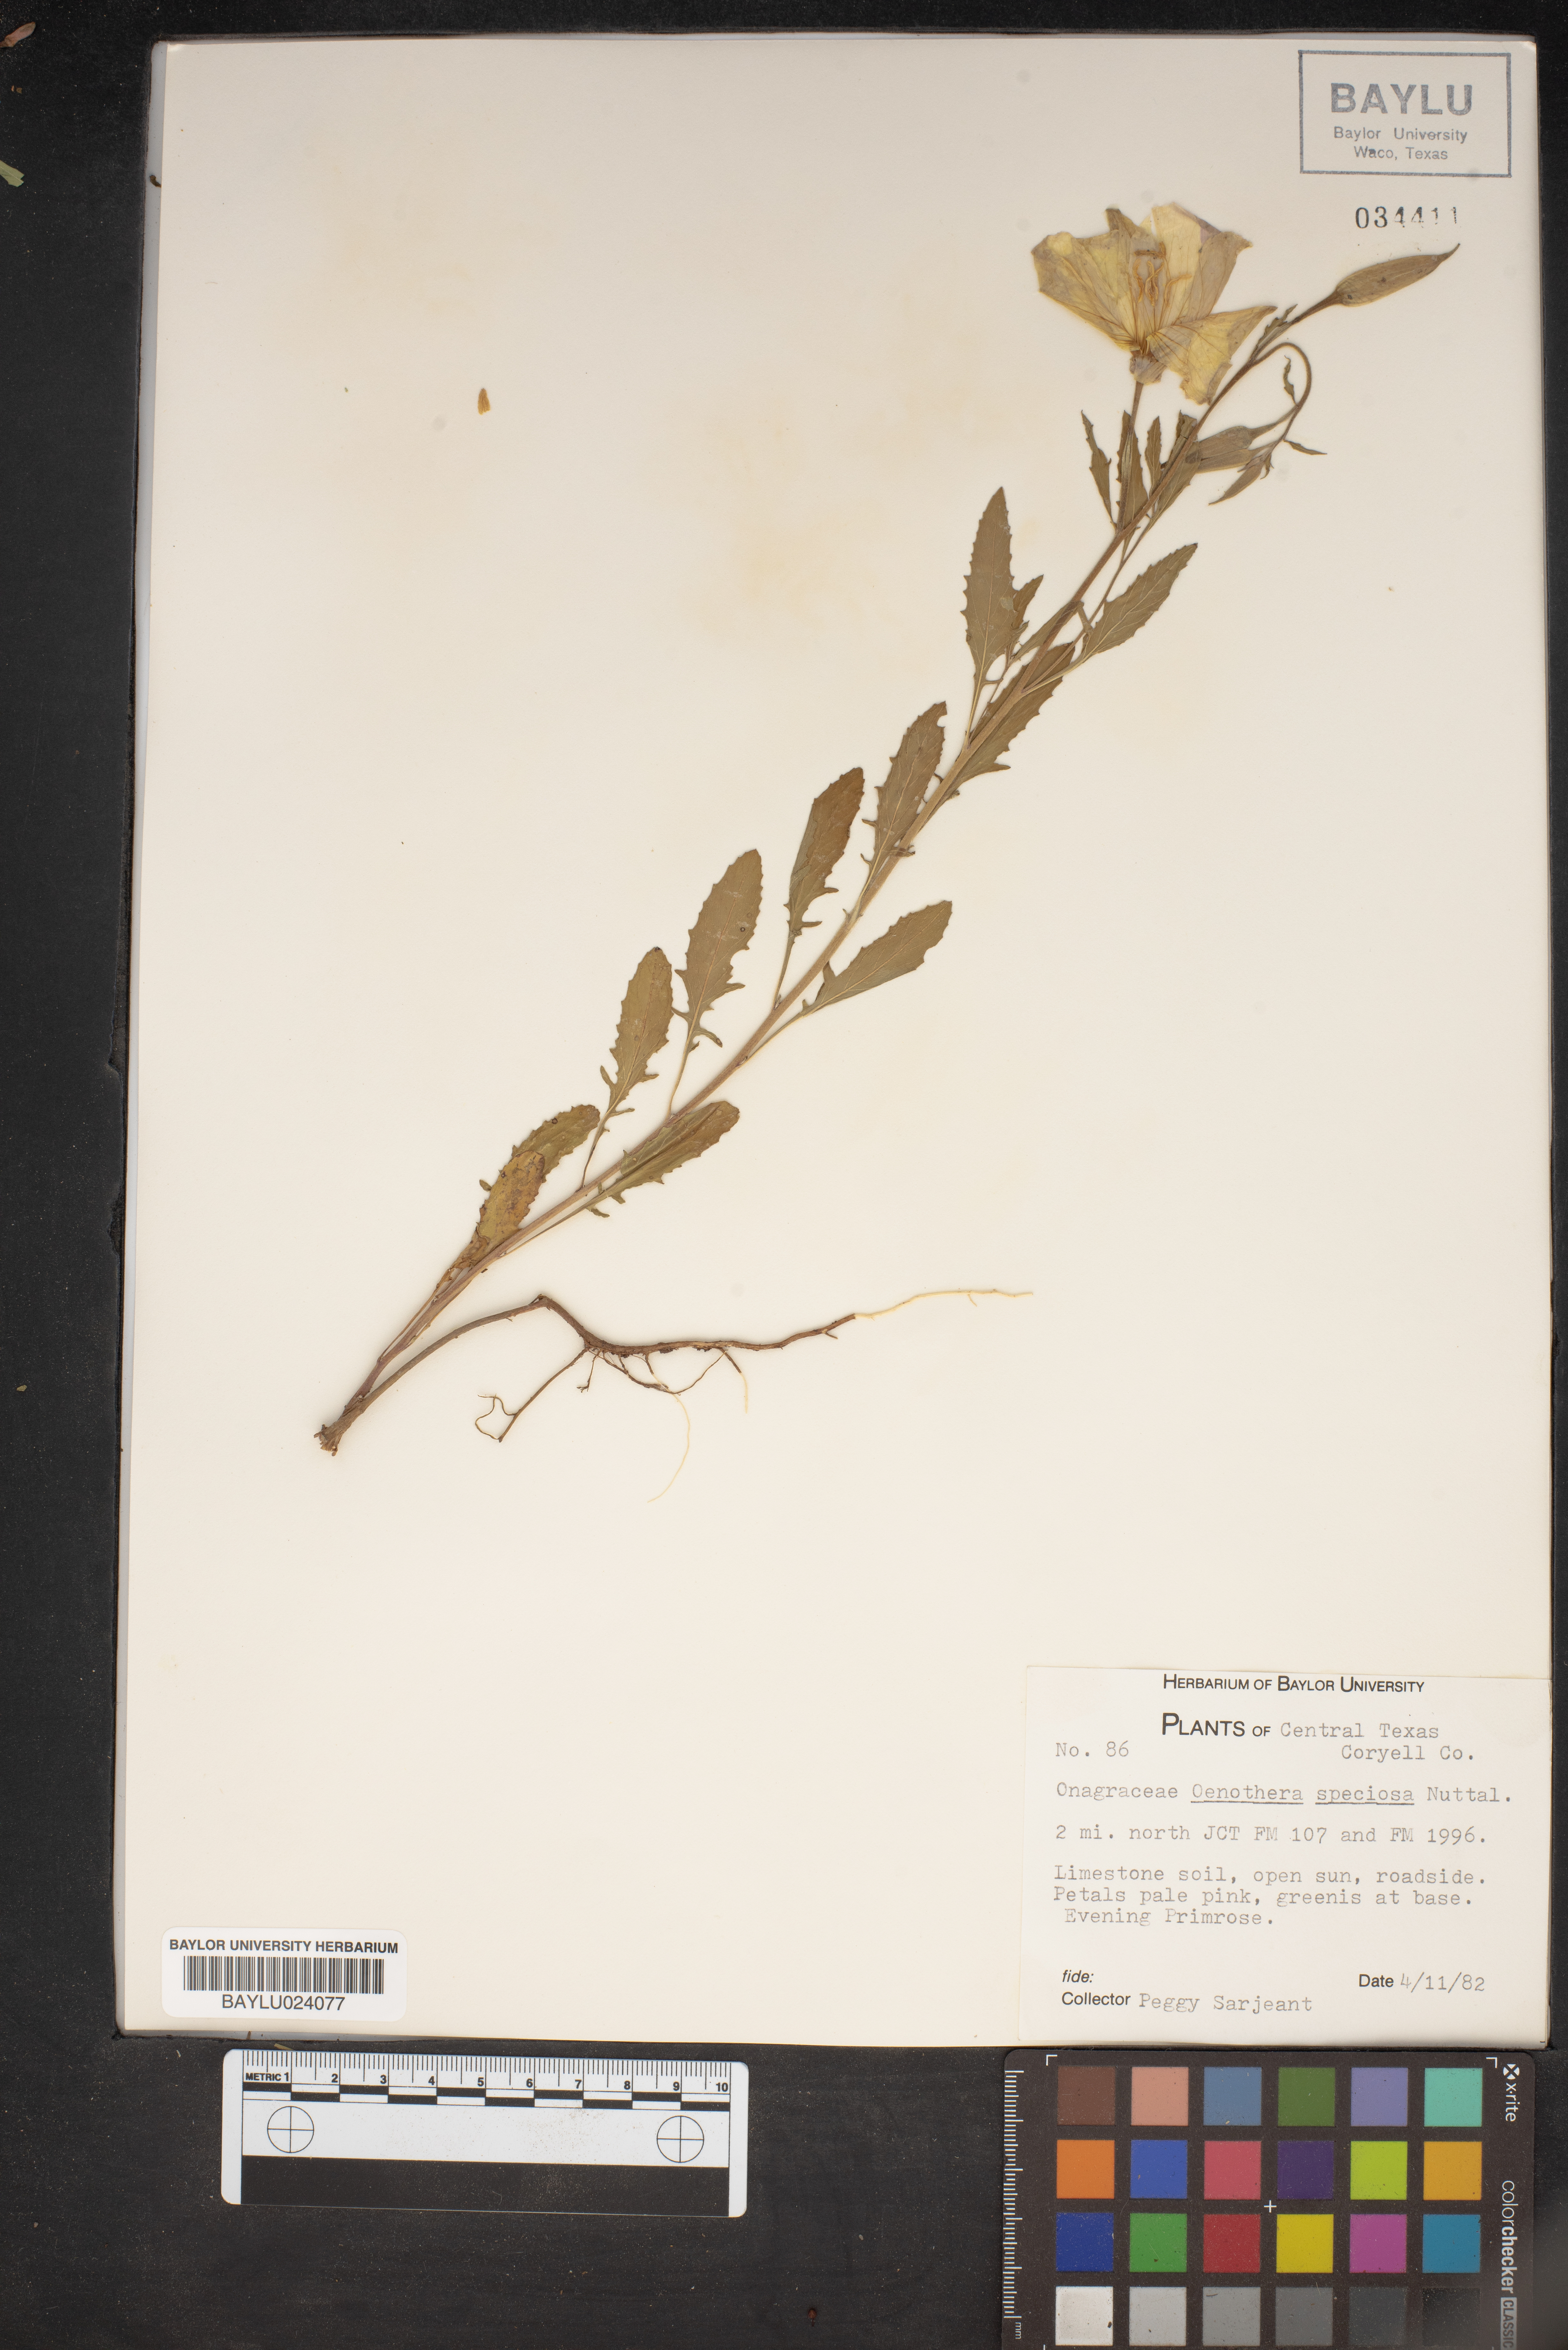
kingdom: Plantae
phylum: Tracheophyta
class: Magnoliopsida
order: Myrtales
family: Onagraceae
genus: Oenothera
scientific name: Oenothera speciosa
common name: White evening-primrose
